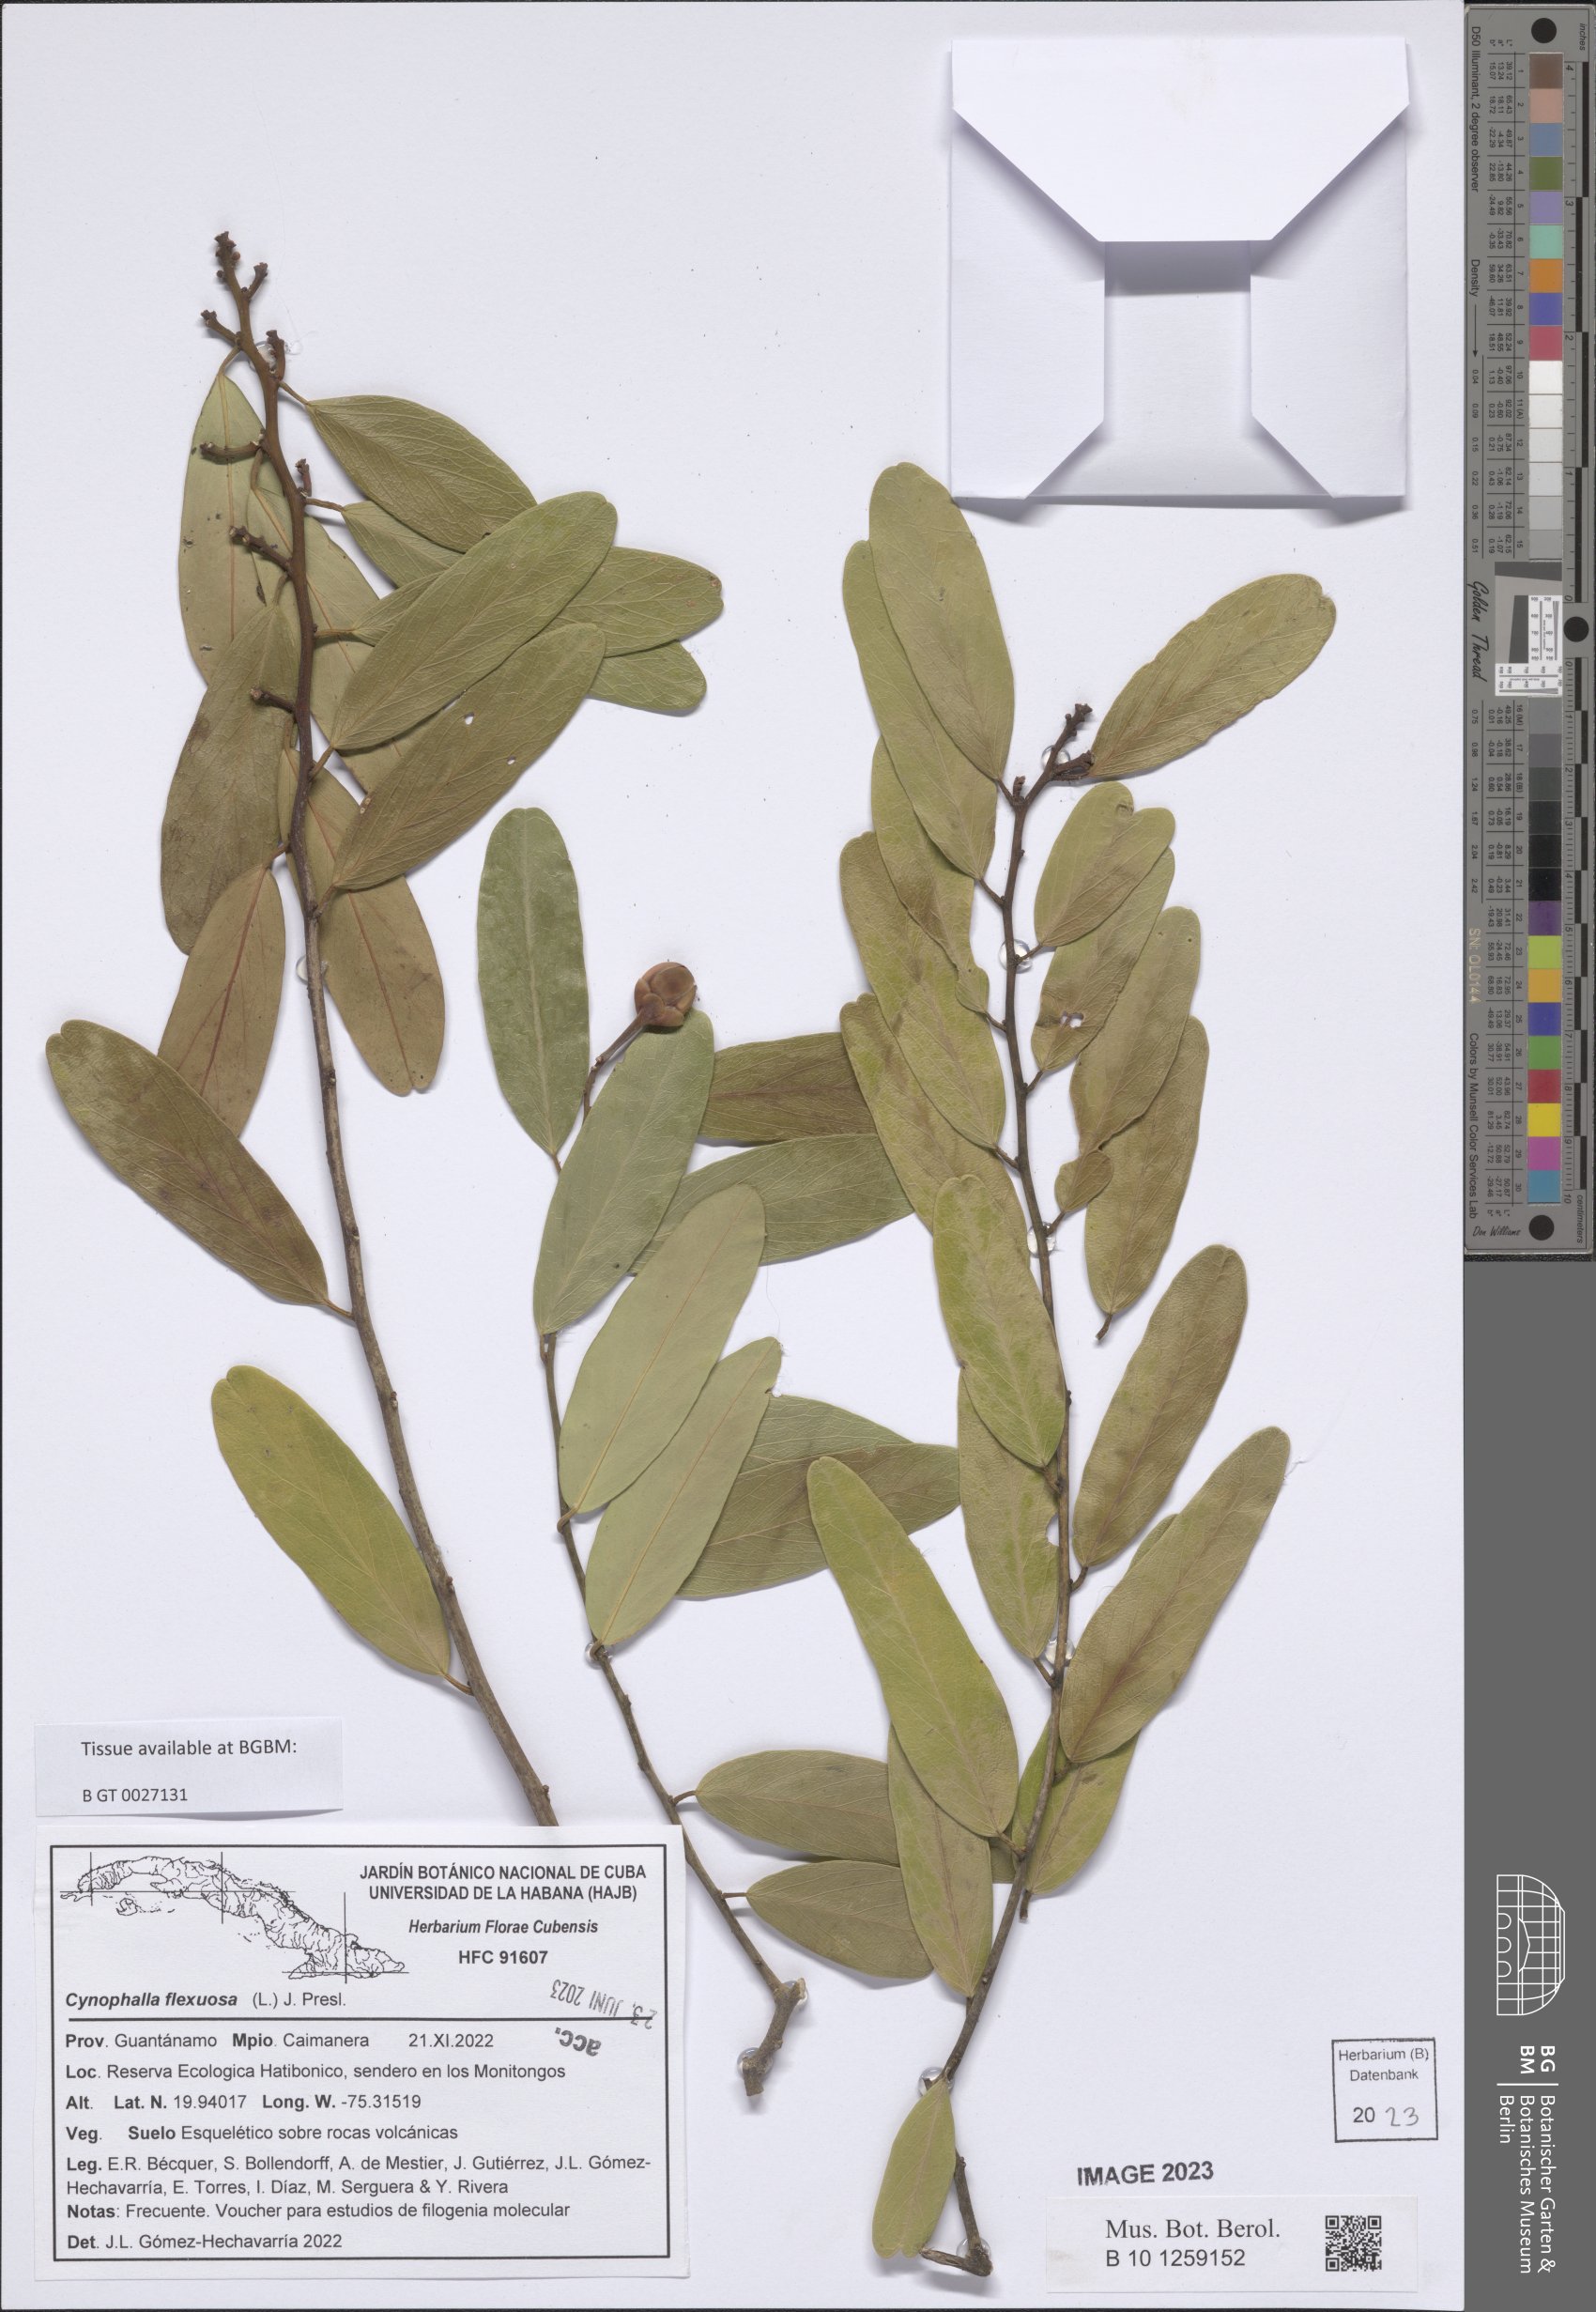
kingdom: Plantae
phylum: Tracheophyta
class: Magnoliopsida
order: Brassicales
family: Capparaceae
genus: Cynophalla
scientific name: Cynophalla flexuosa
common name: Capertree
